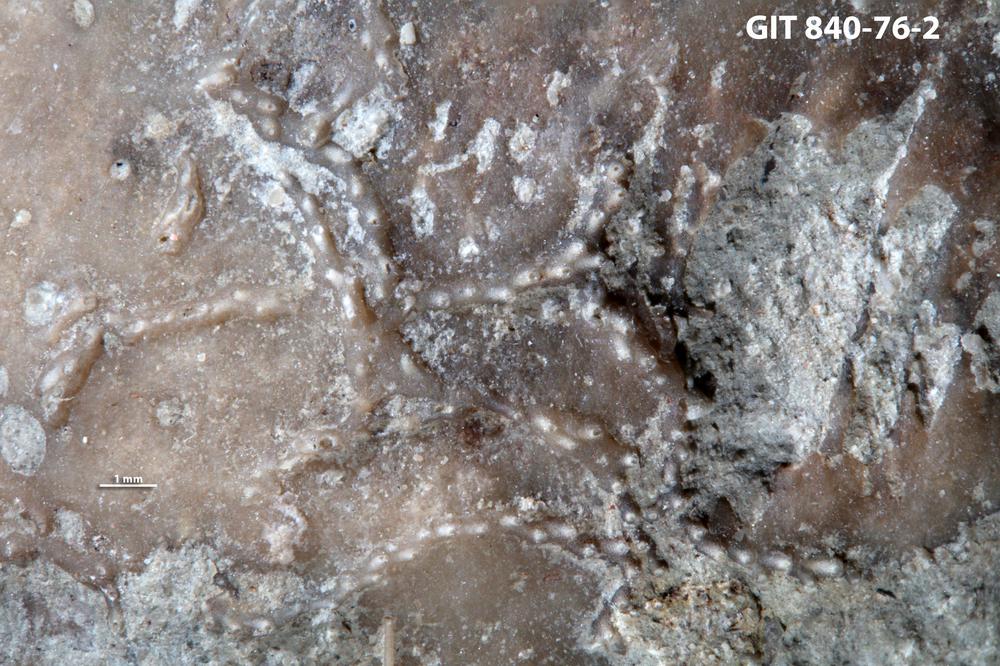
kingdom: Animalia
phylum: Bryozoa
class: Stenolaemata
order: Cyclostomatida
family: Crownoporidae
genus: Cuffeyella
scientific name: Cuffeyella
